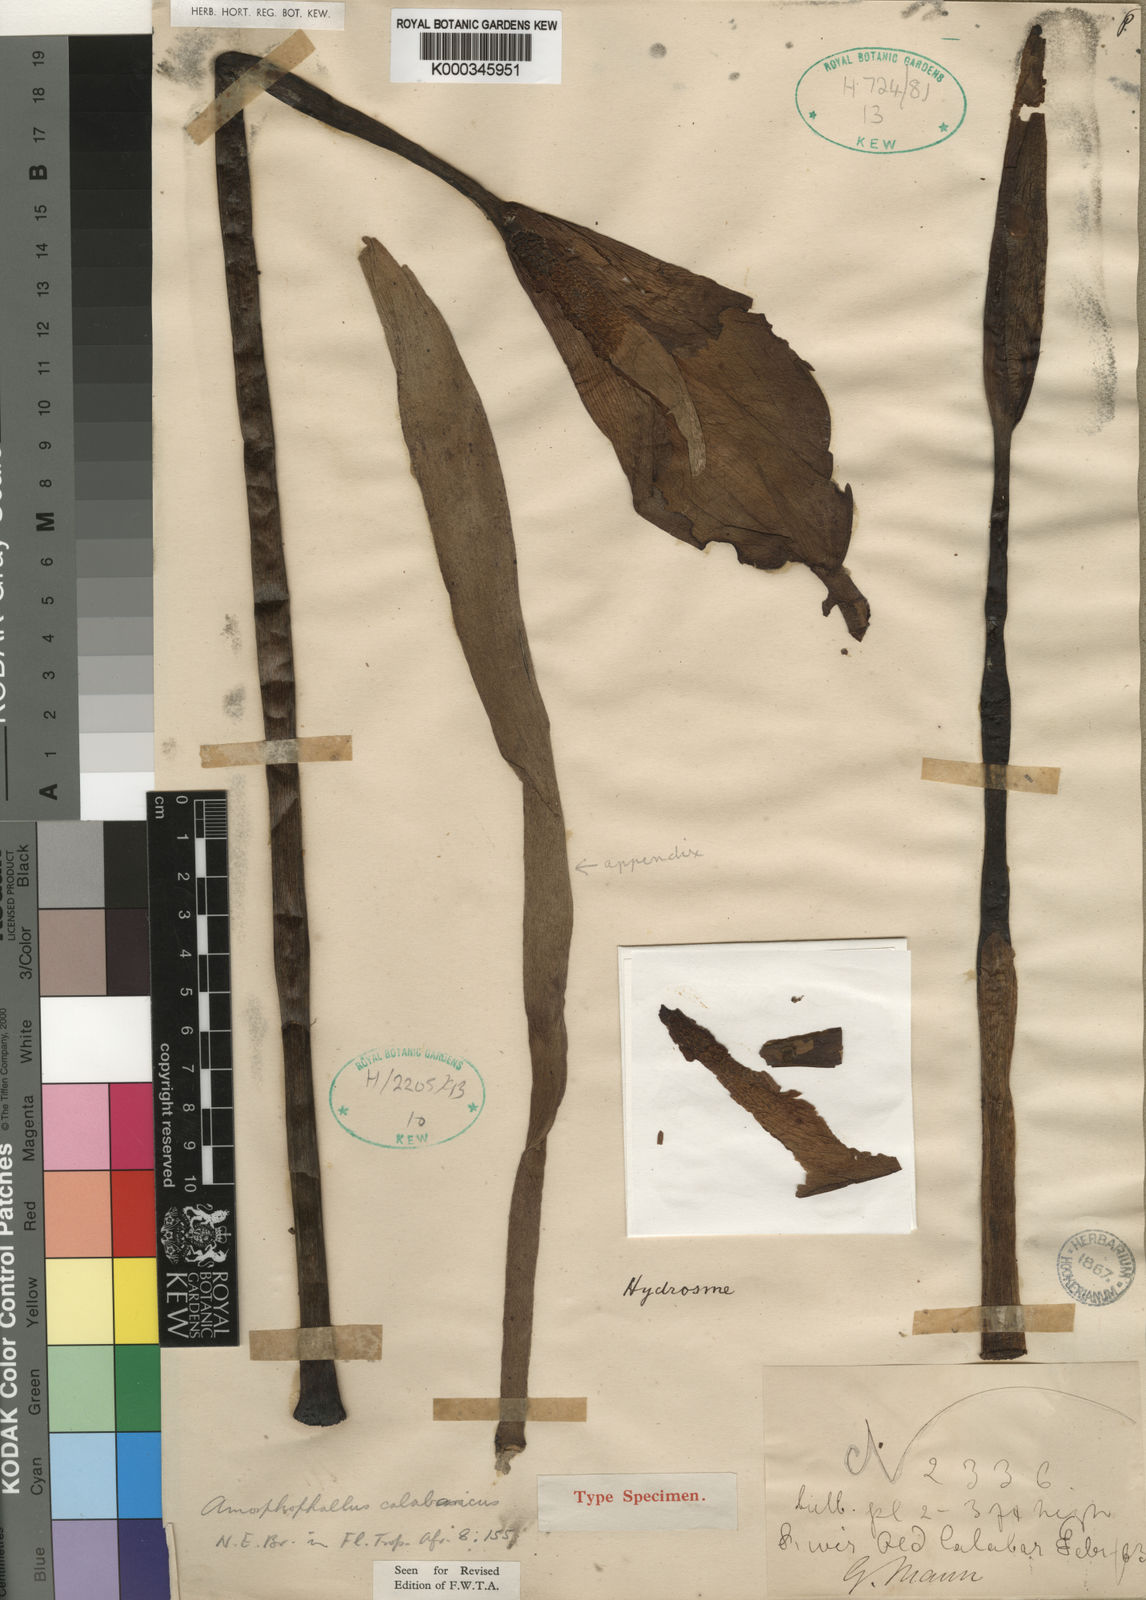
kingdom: Plantae
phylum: Tracheophyta
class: Liliopsida
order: Alismatales
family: Araceae
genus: Amorphophallus
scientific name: Amorphophallus calabaricus
